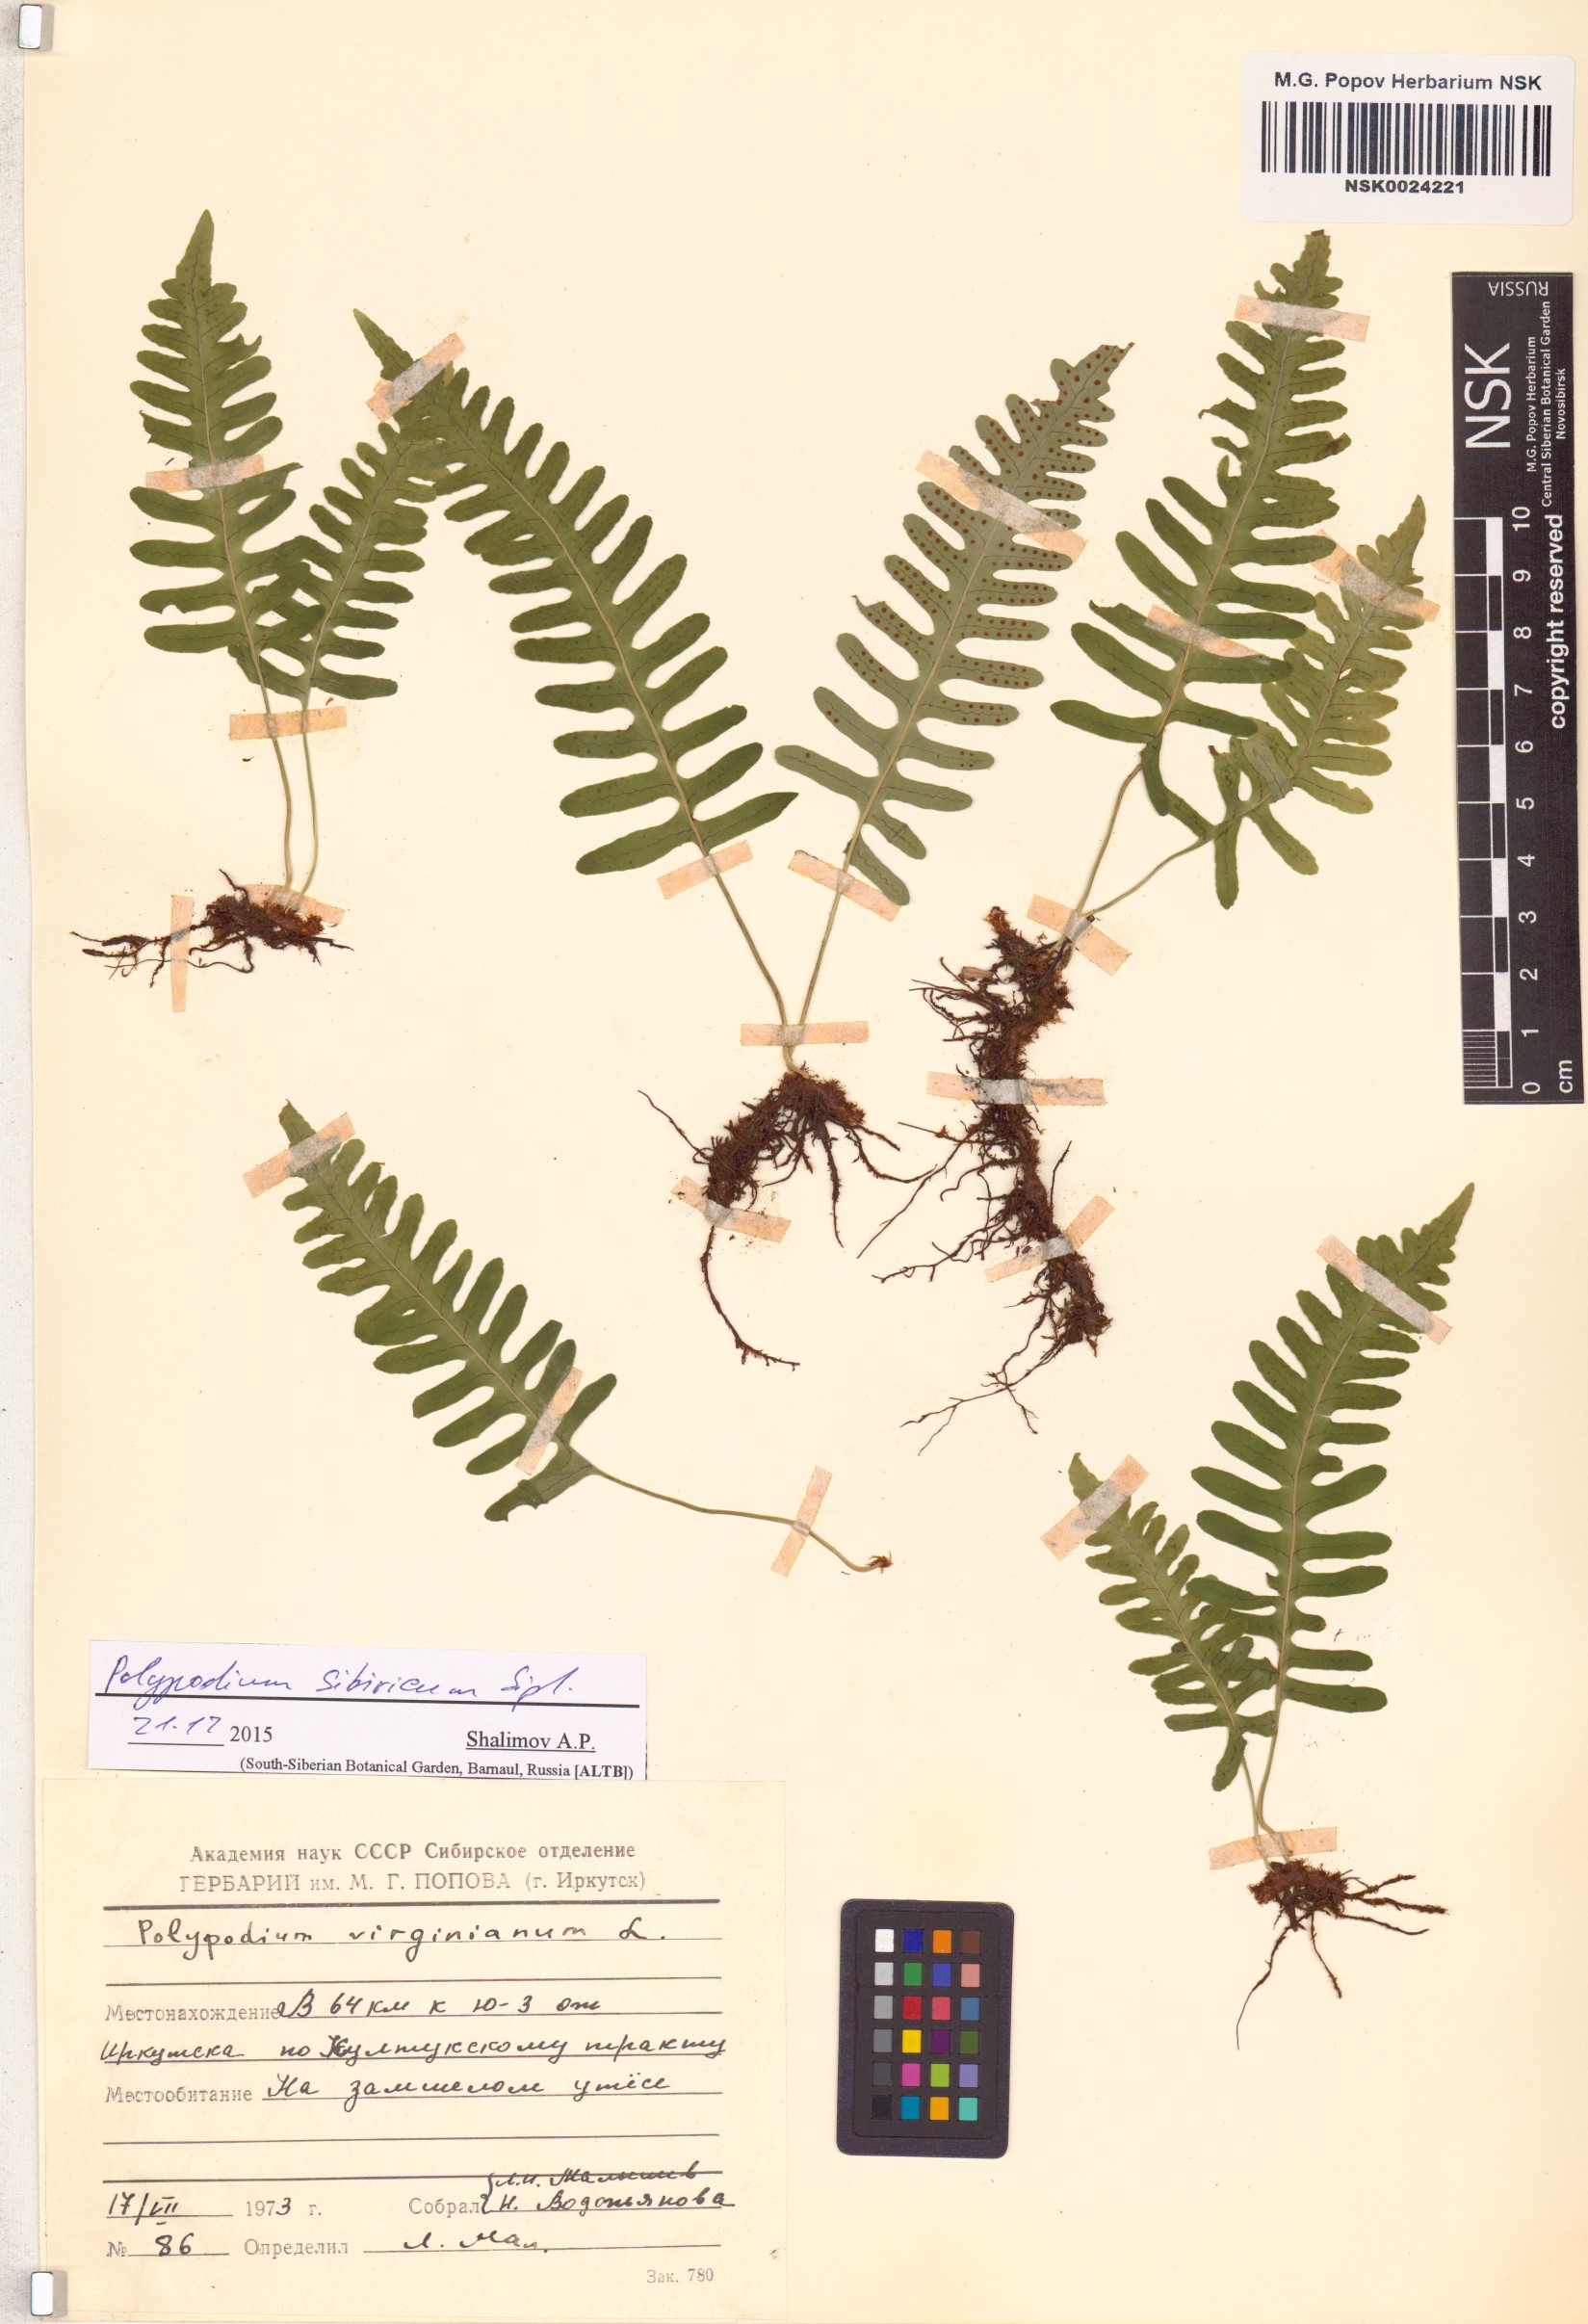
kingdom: Plantae
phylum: Tracheophyta
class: Polypodiopsida
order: Polypodiales
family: Polypodiaceae
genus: Polypodium
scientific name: Polypodium sibiricum
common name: Siberian polypody
